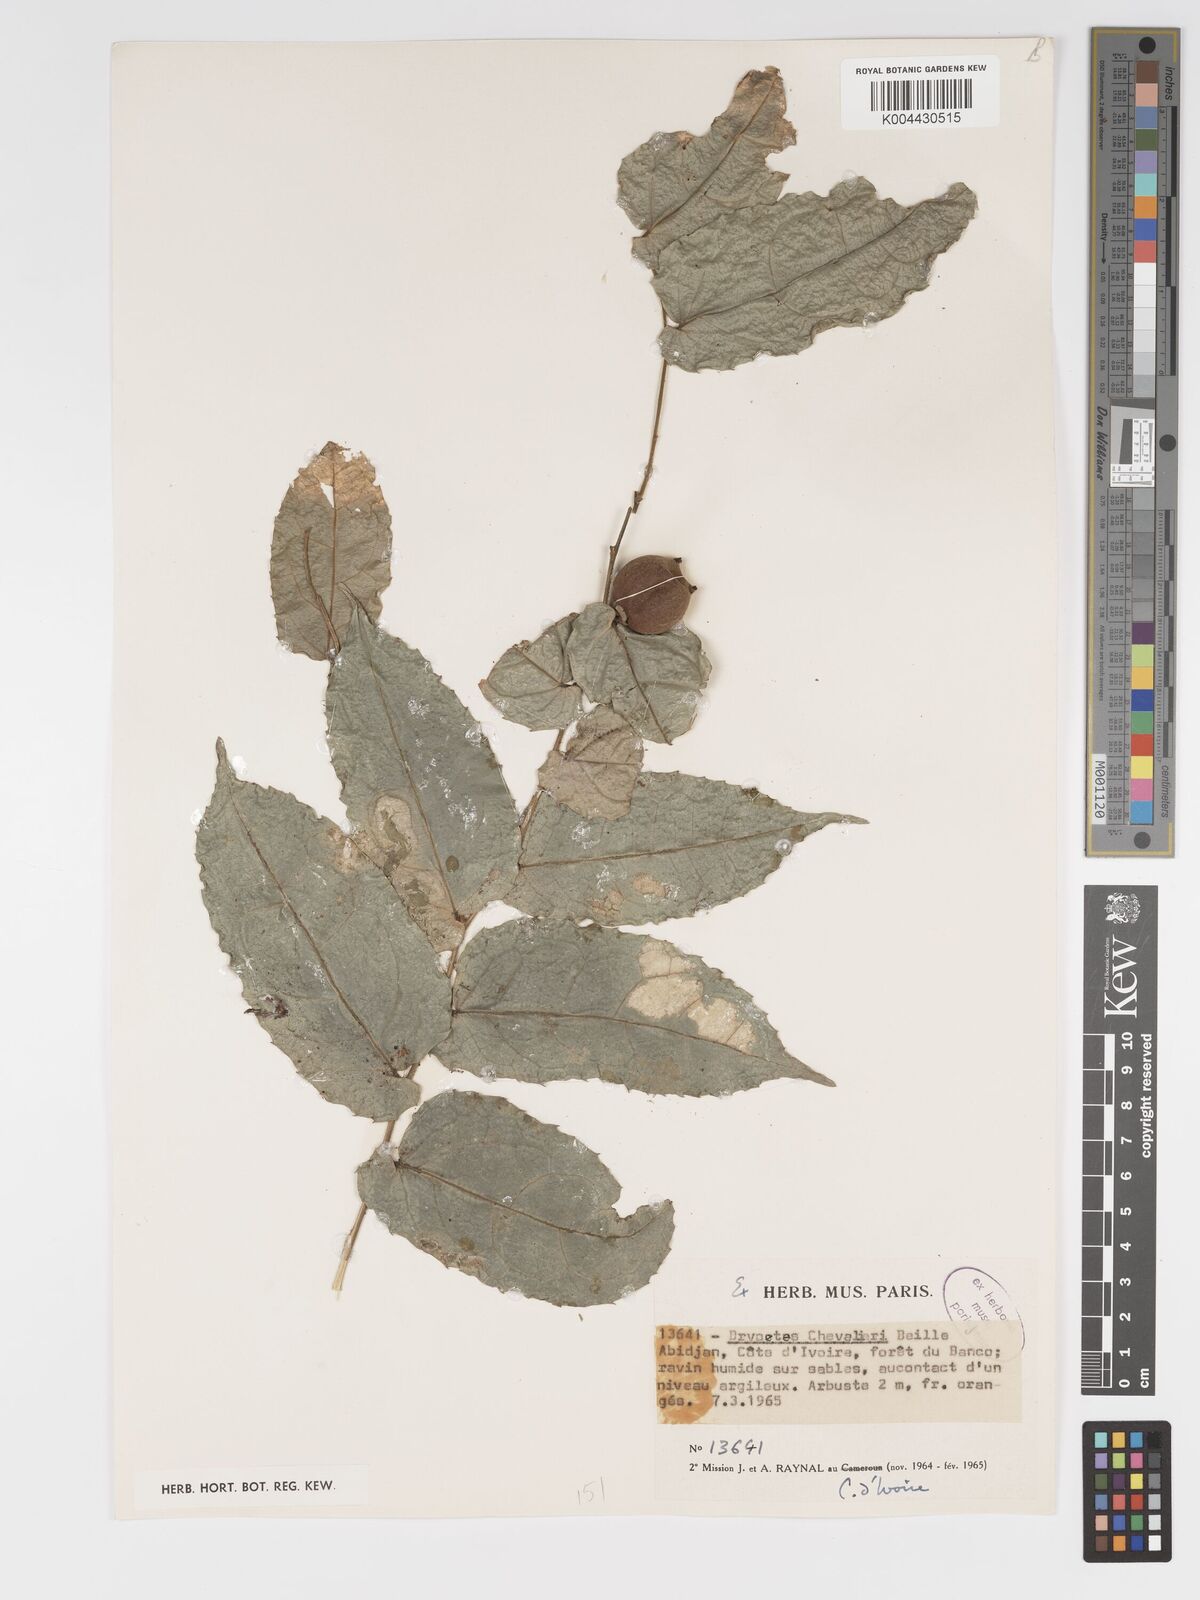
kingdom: Plantae
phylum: Tracheophyta
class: Magnoliopsida
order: Malpighiales
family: Putranjivaceae
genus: Drypetes
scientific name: Drypetes chevalieri
